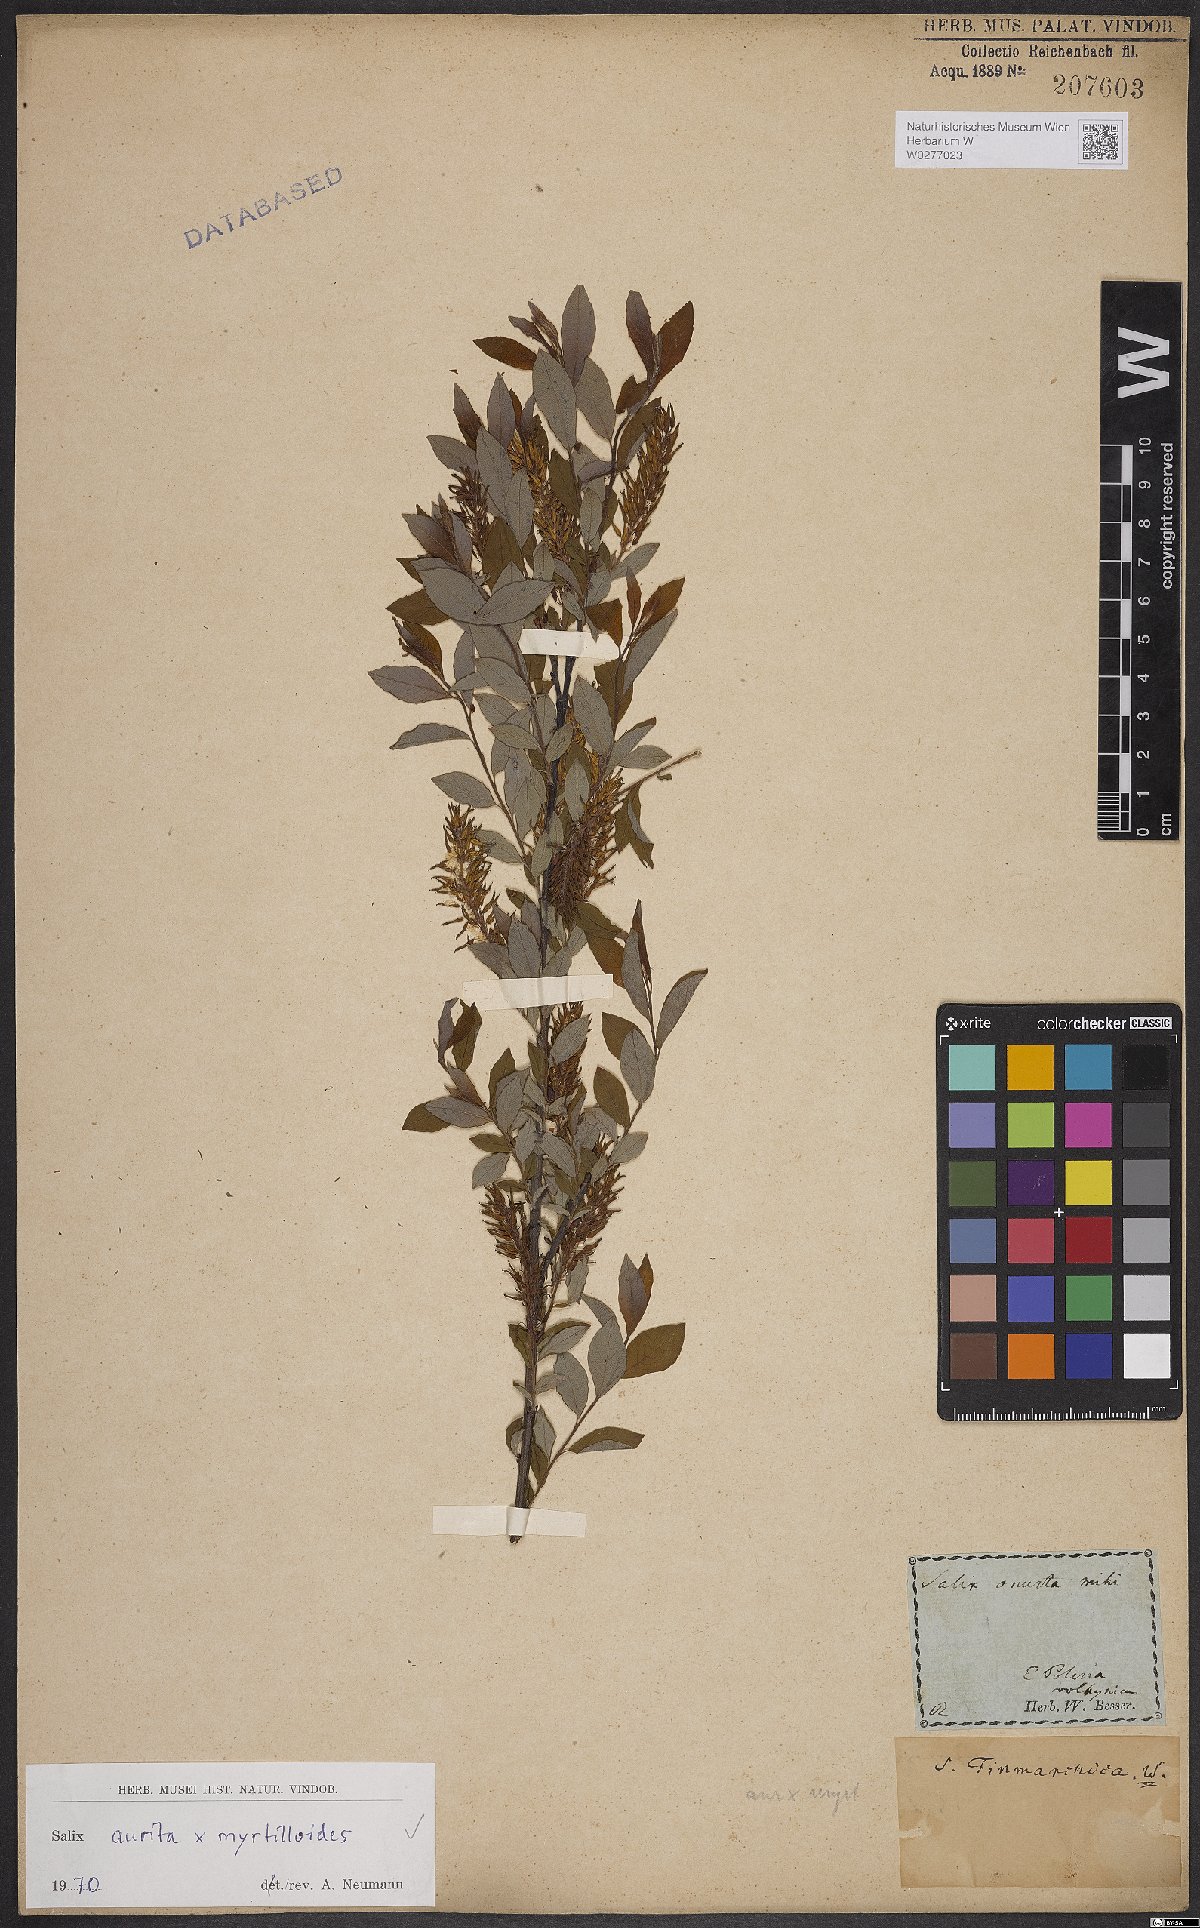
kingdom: Plantae
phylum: Tracheophyta
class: Magnoliopsida
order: Malpighiales
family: Salicaceae
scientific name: Salicaceae
